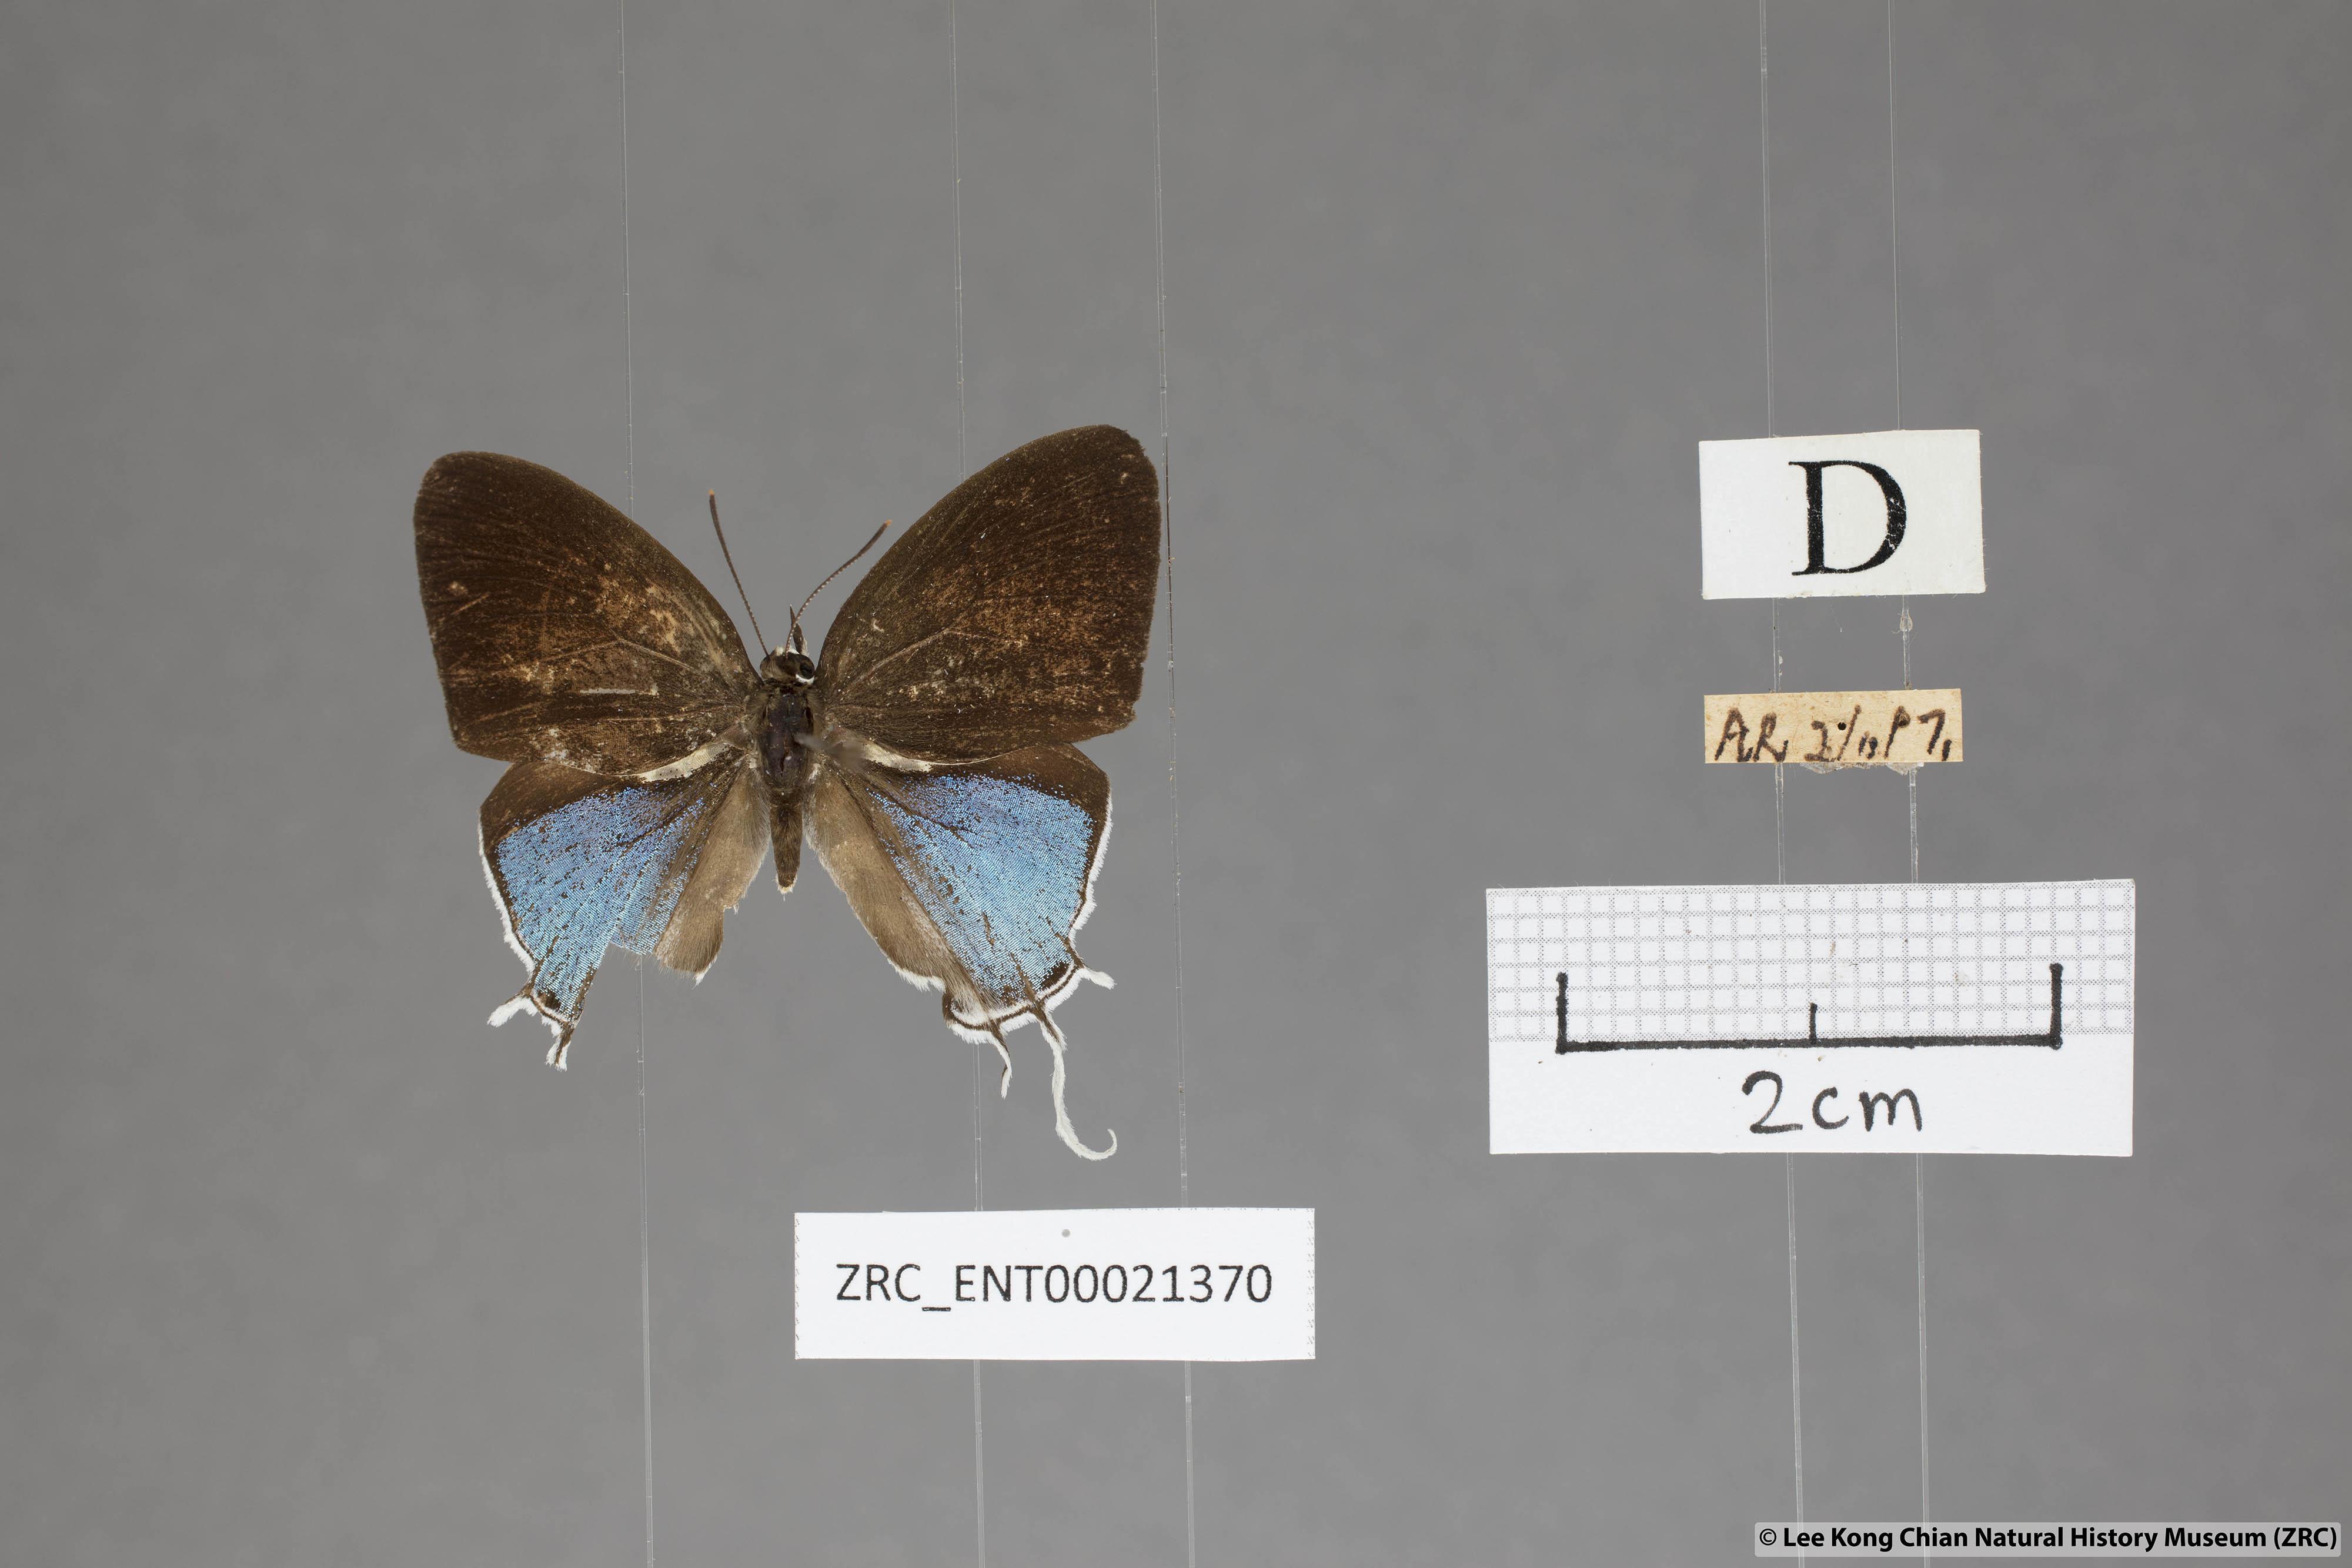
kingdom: Animalia
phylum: Arthropoda
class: Insecta
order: Lepidoptera
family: Lycaenidae
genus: Drupadia
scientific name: Drupadia ravindra
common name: Common posy
